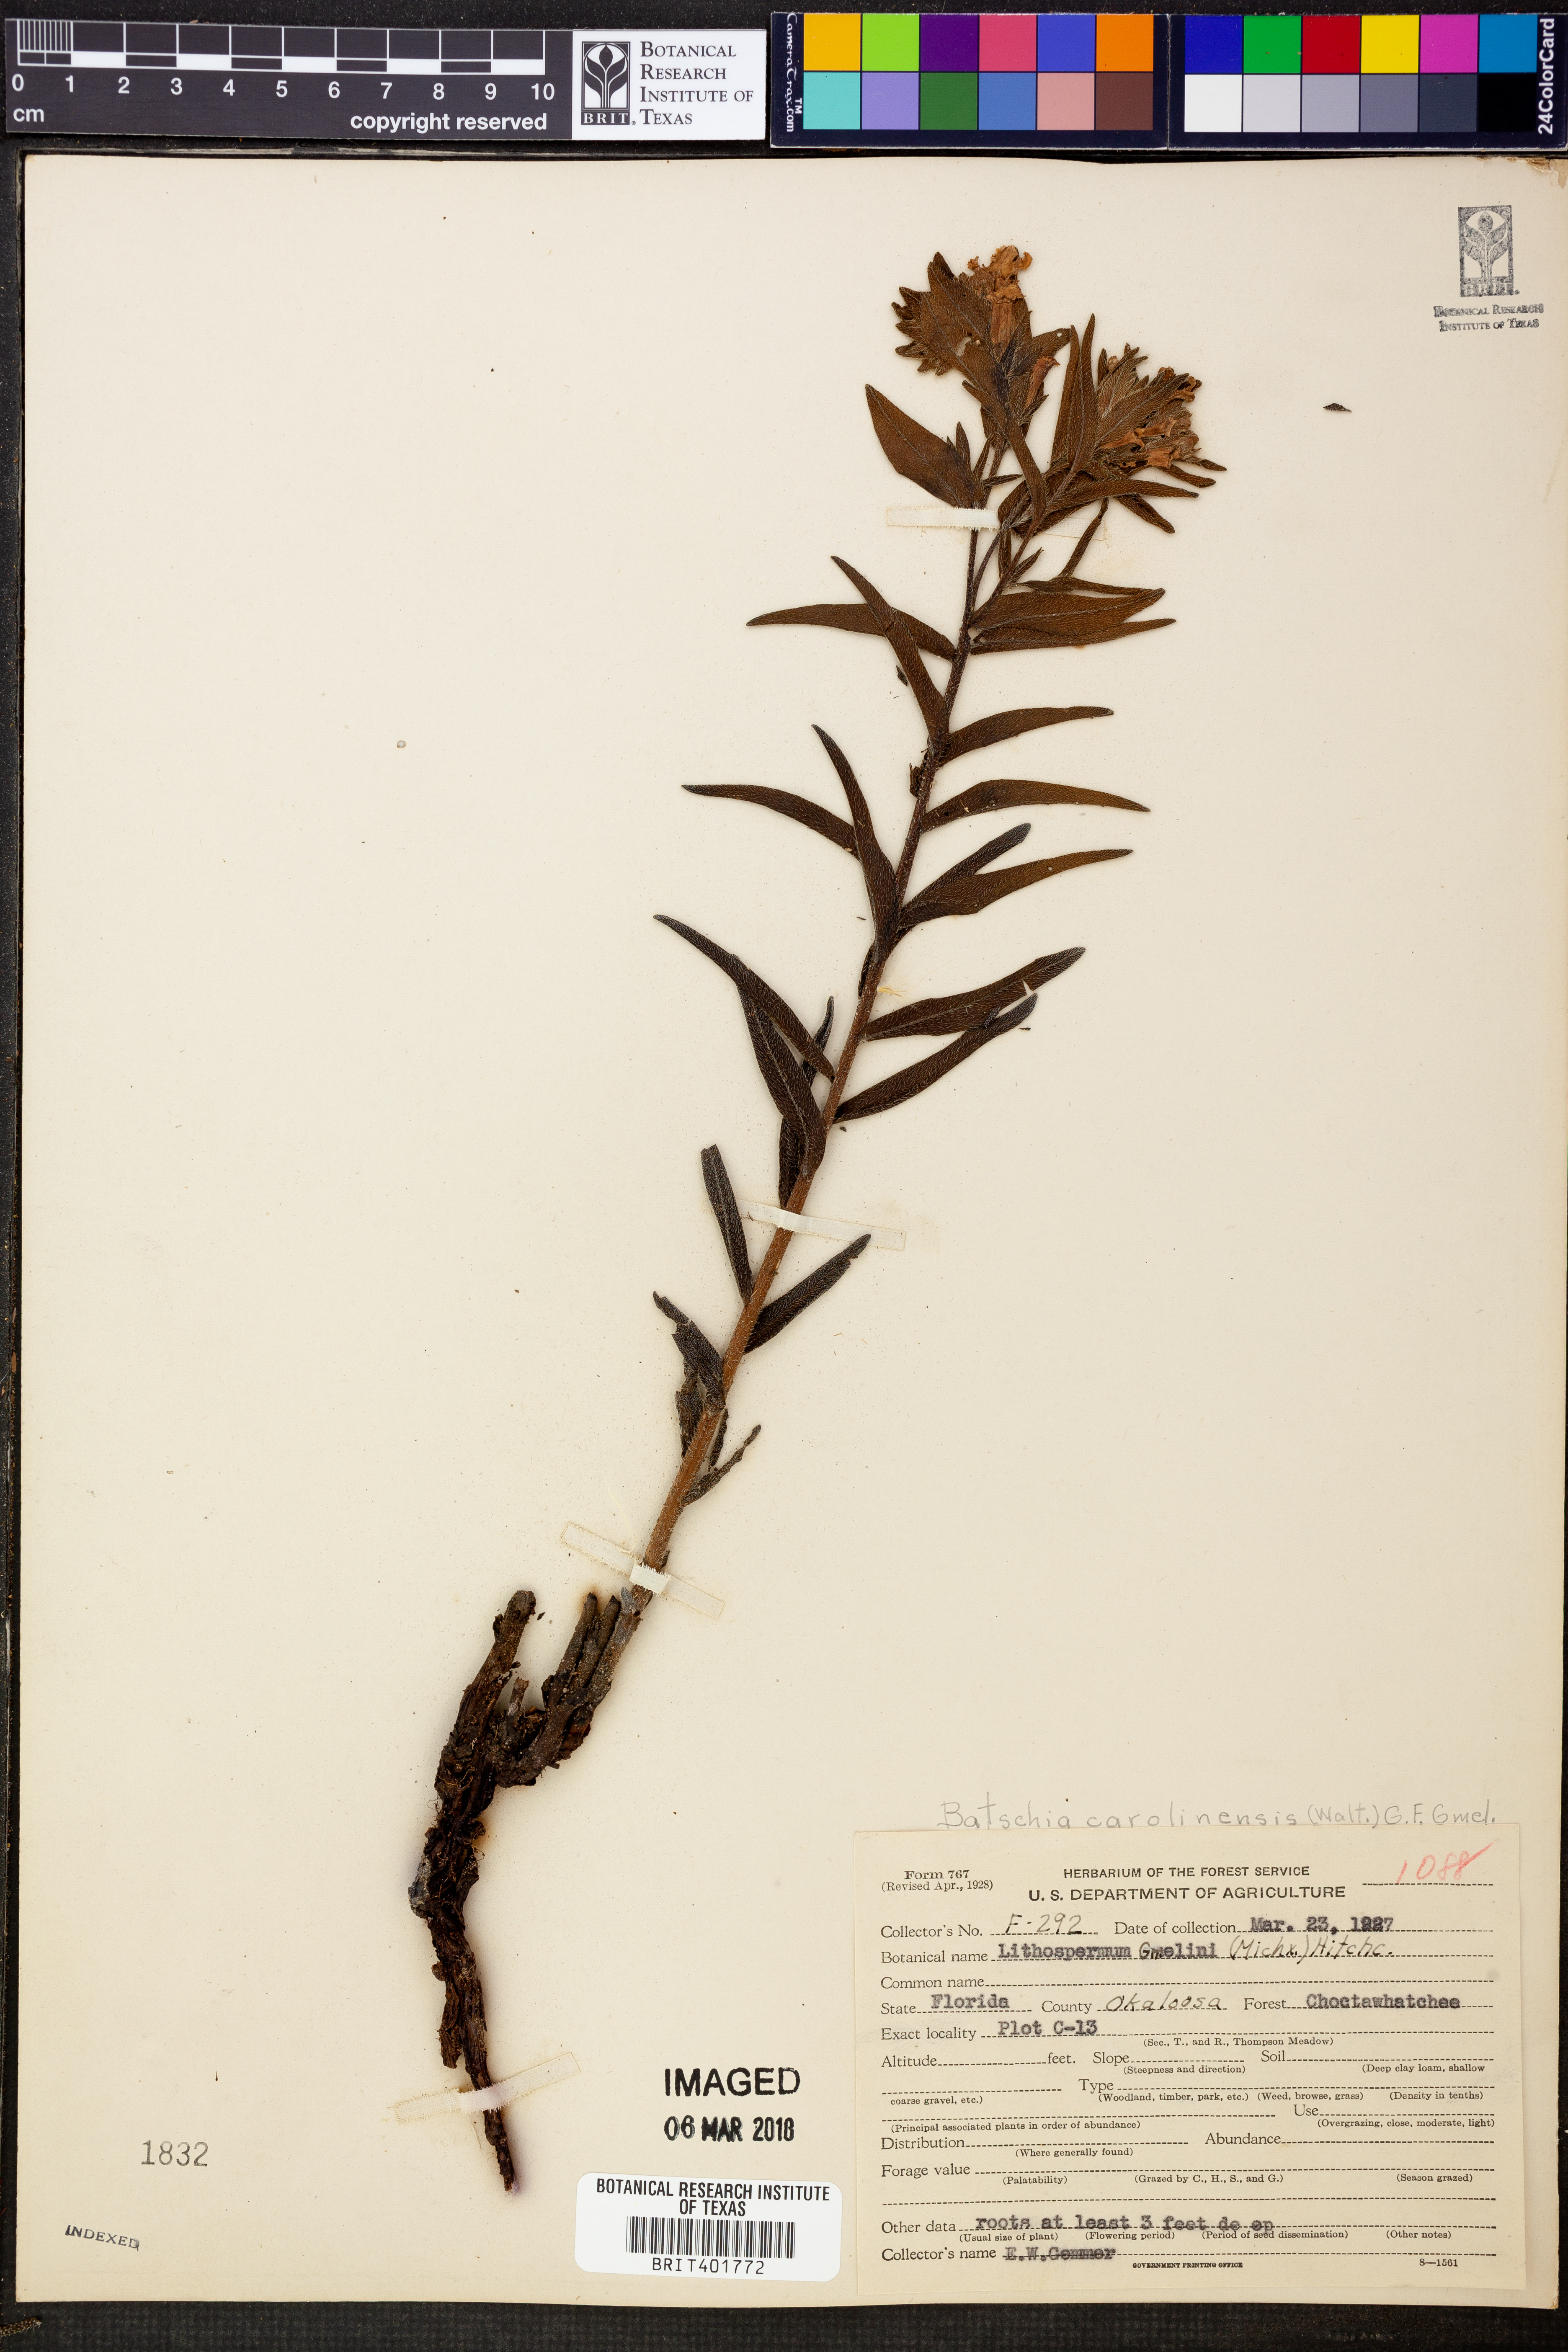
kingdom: Plantae
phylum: Tracheophyta
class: Magnoliopsida
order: Boraginales
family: Boraginaceae
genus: Lithospermum
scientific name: Lithospermum caroliniense
